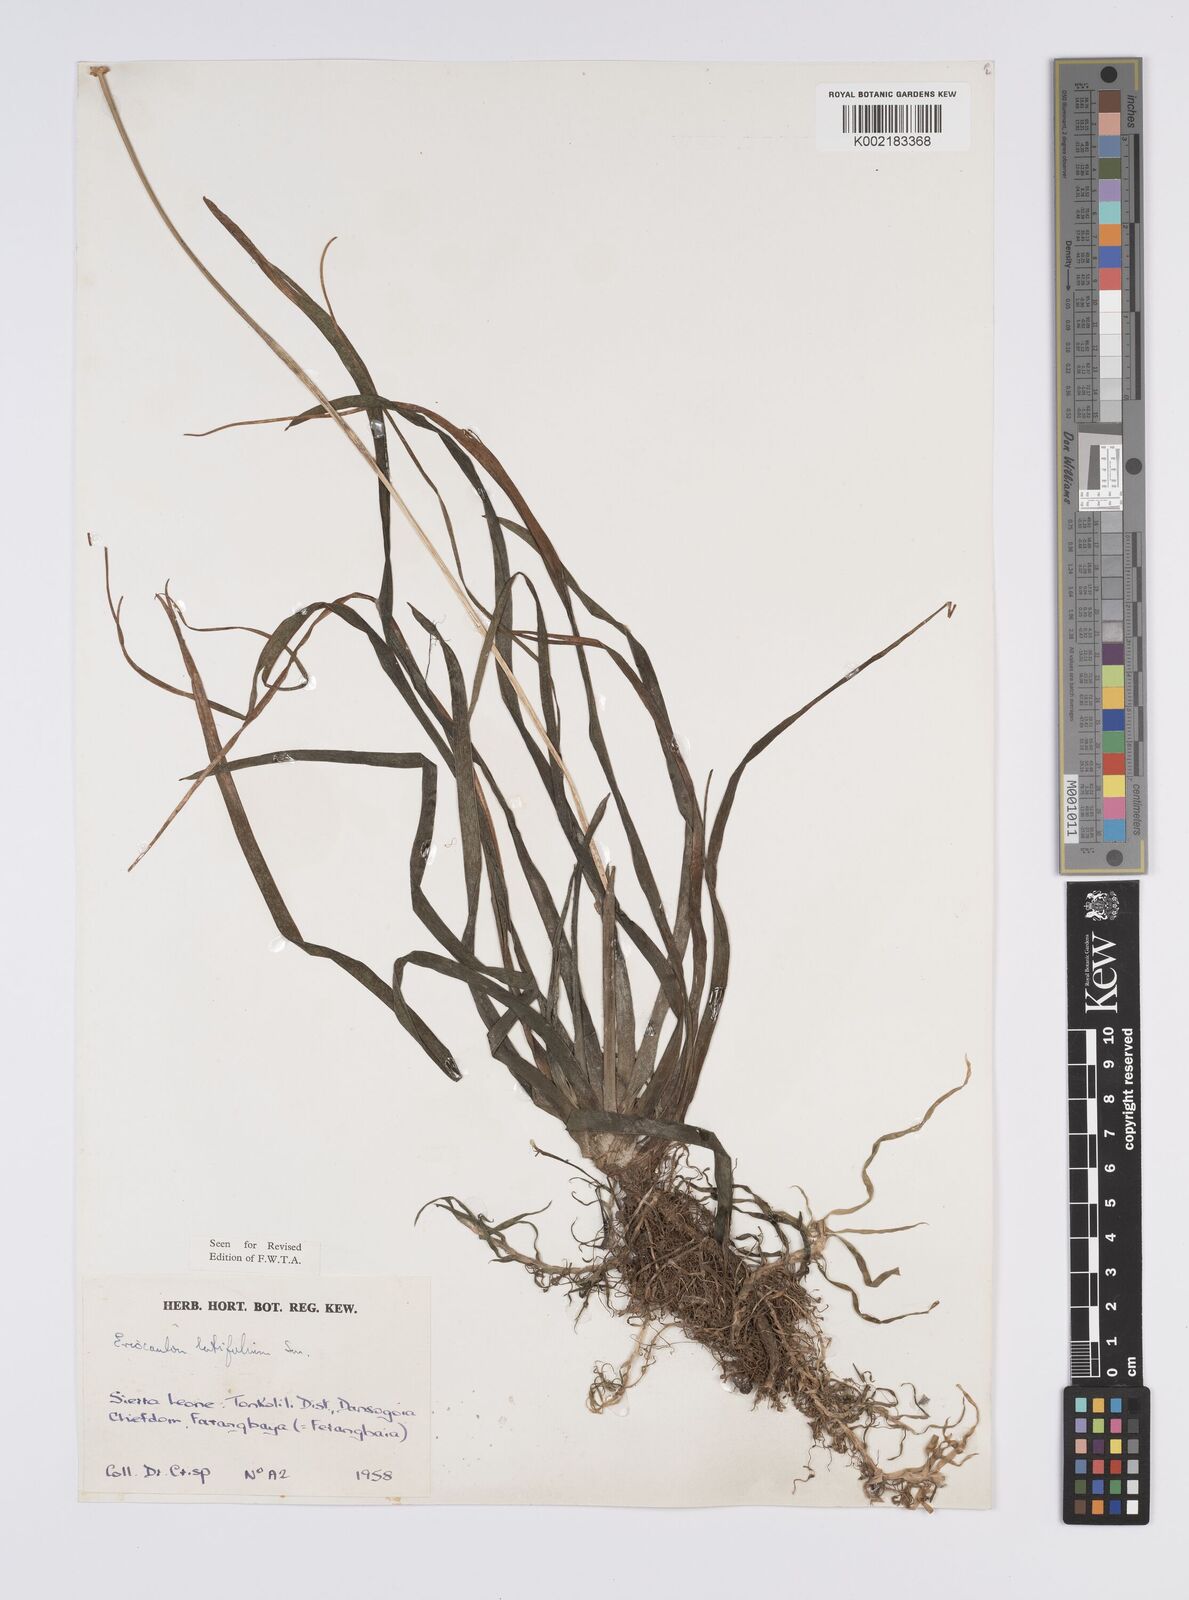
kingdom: Plantae
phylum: Tracheophyta
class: Liliopsida
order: Poales
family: Eriocaulaceae
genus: Eriocaulon
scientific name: Eriocaulon latifolium
